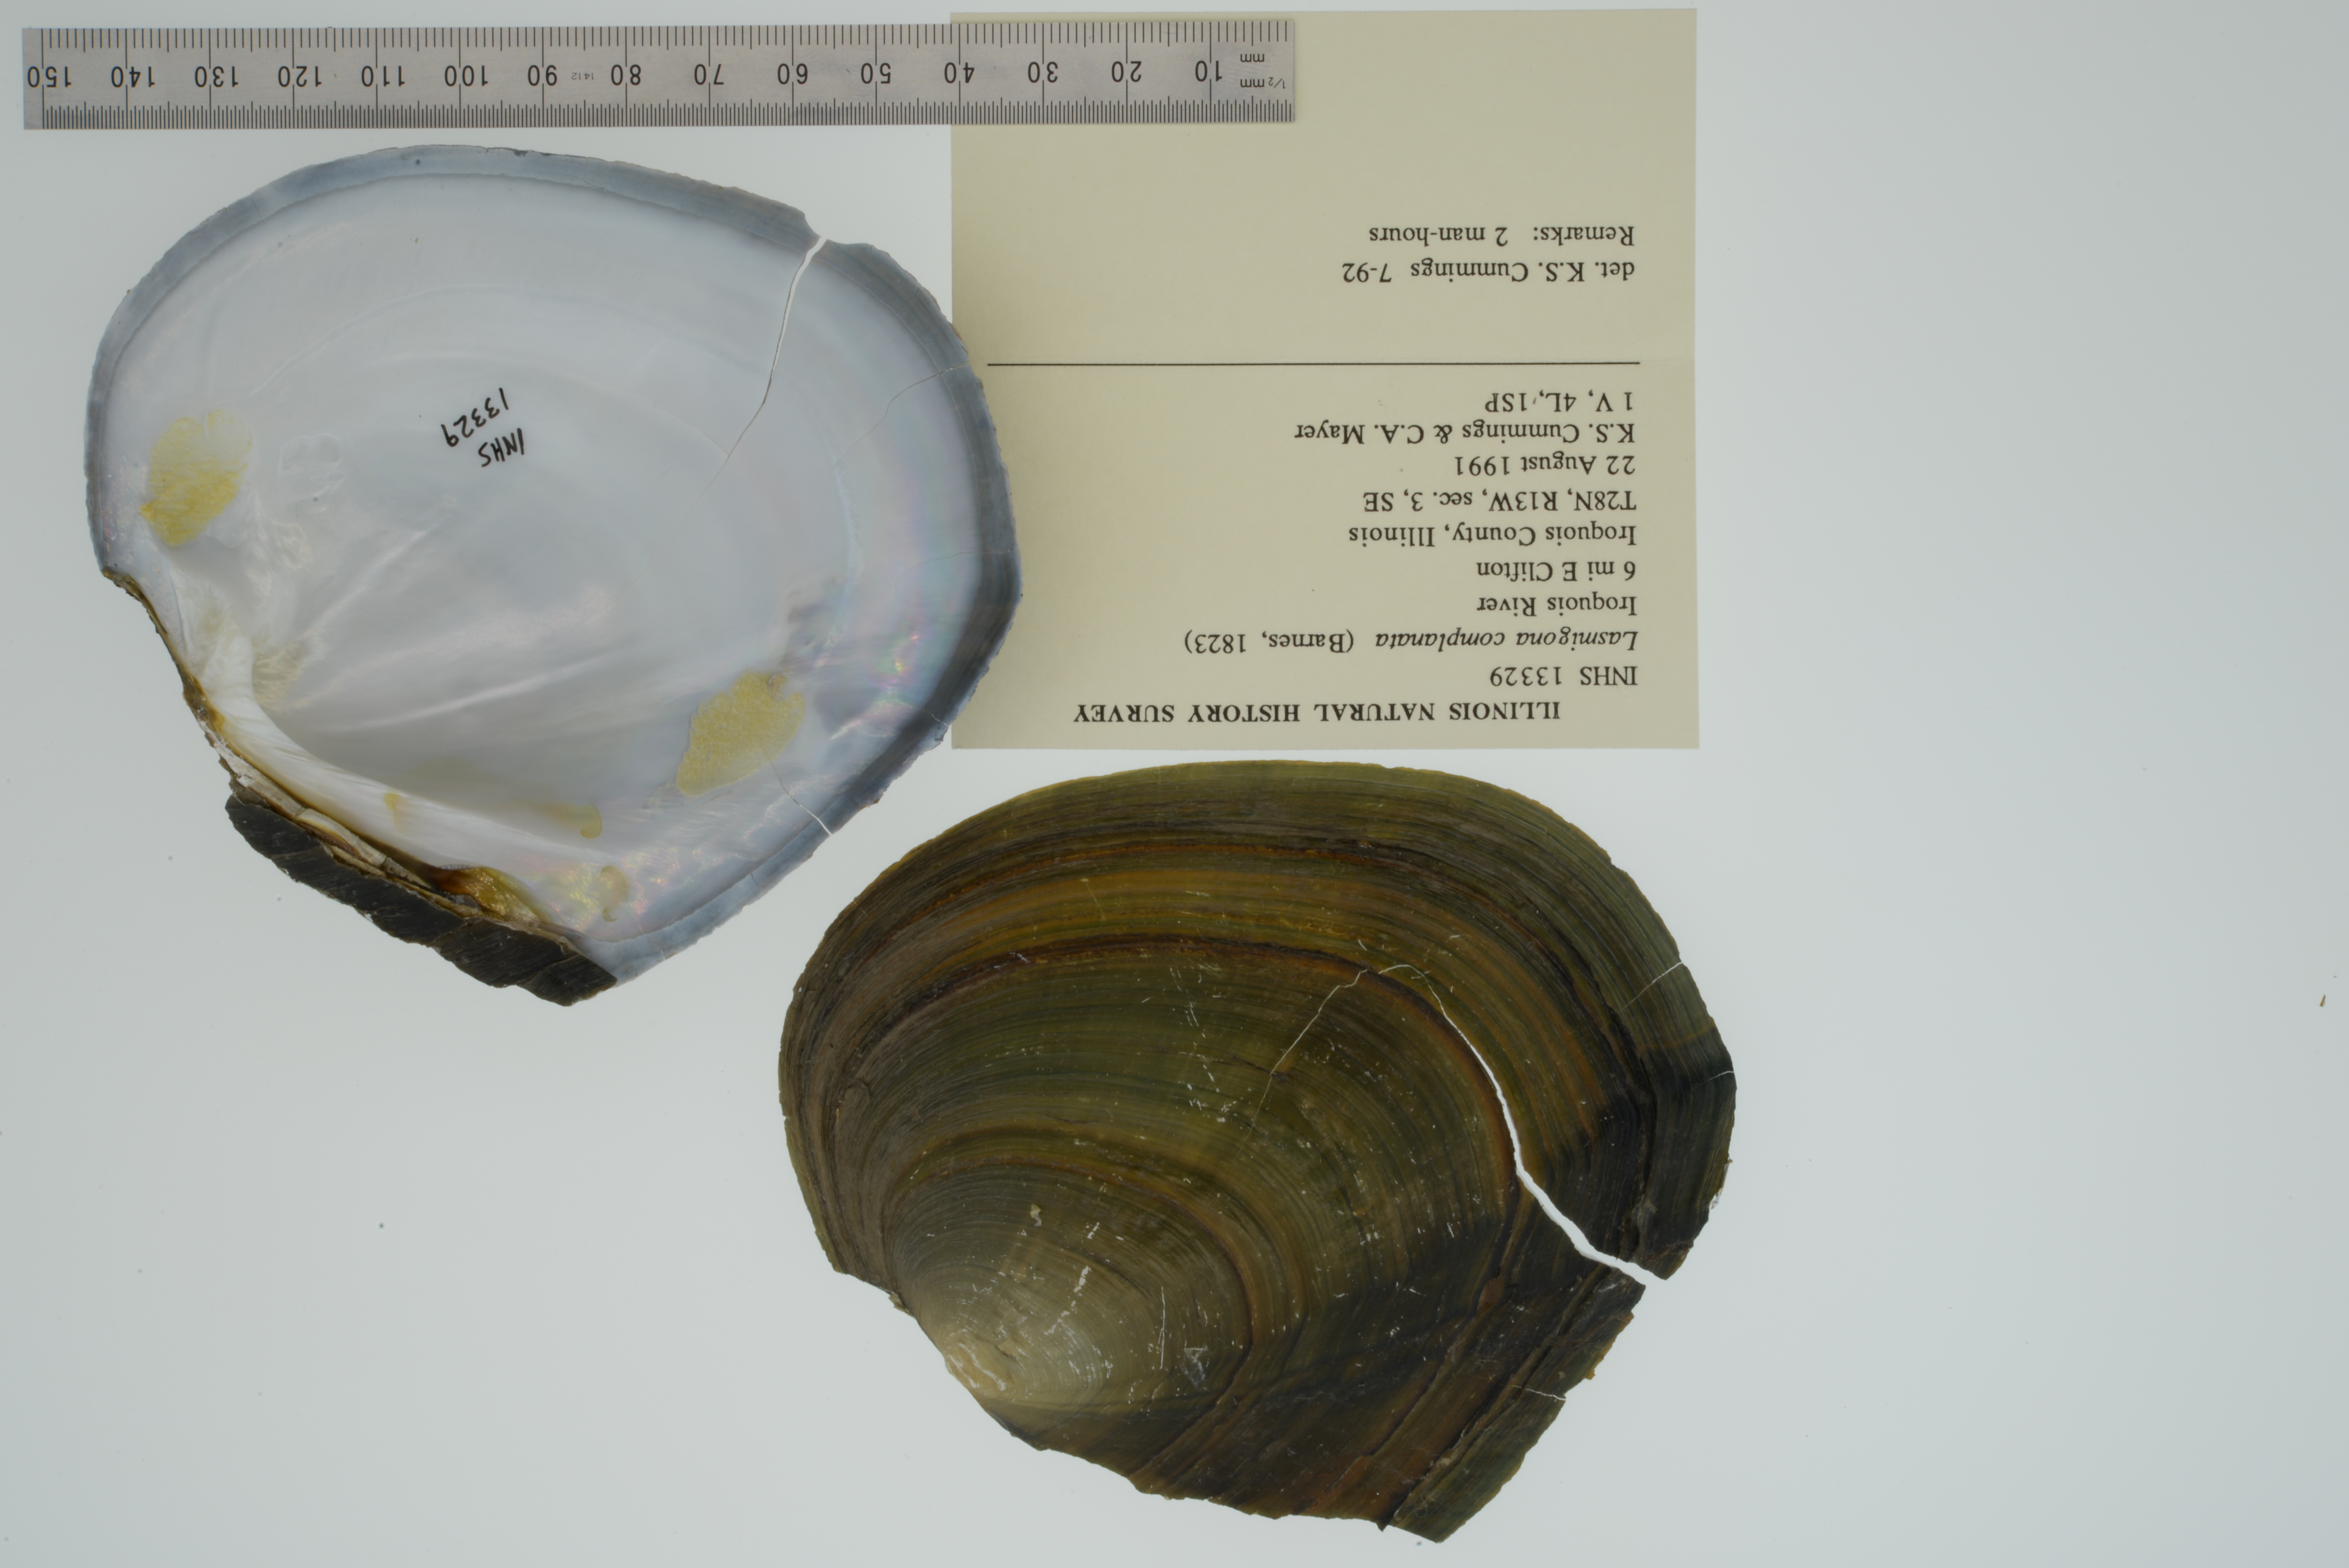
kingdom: Animalia
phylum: Mollusca
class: Bivalvia
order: Unionida
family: Unionidae
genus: Lasmigona
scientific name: Lasmigona complanata
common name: White heelsplitter
